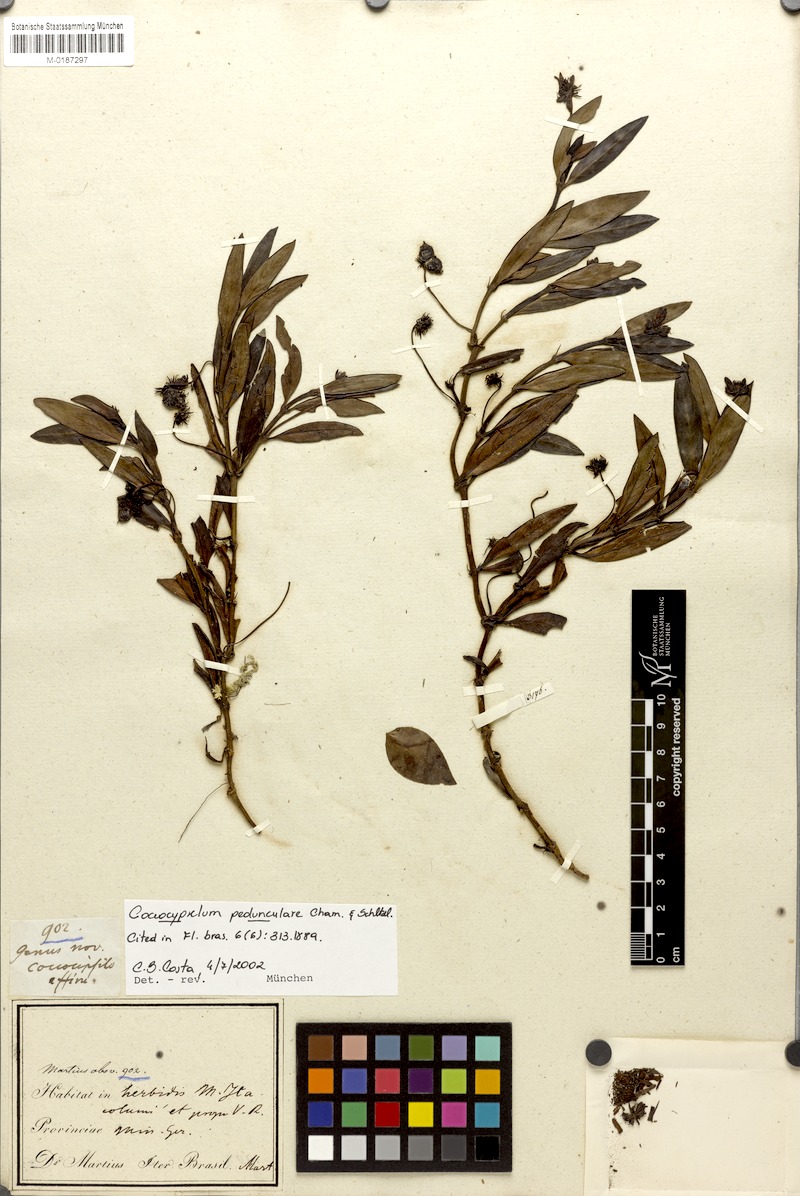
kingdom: Plantae
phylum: Tracheophyta
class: Magnoliopsida
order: Gentianales
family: Rubiaceae
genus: Coccocypselum
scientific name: Coccocypselum pedunculare
